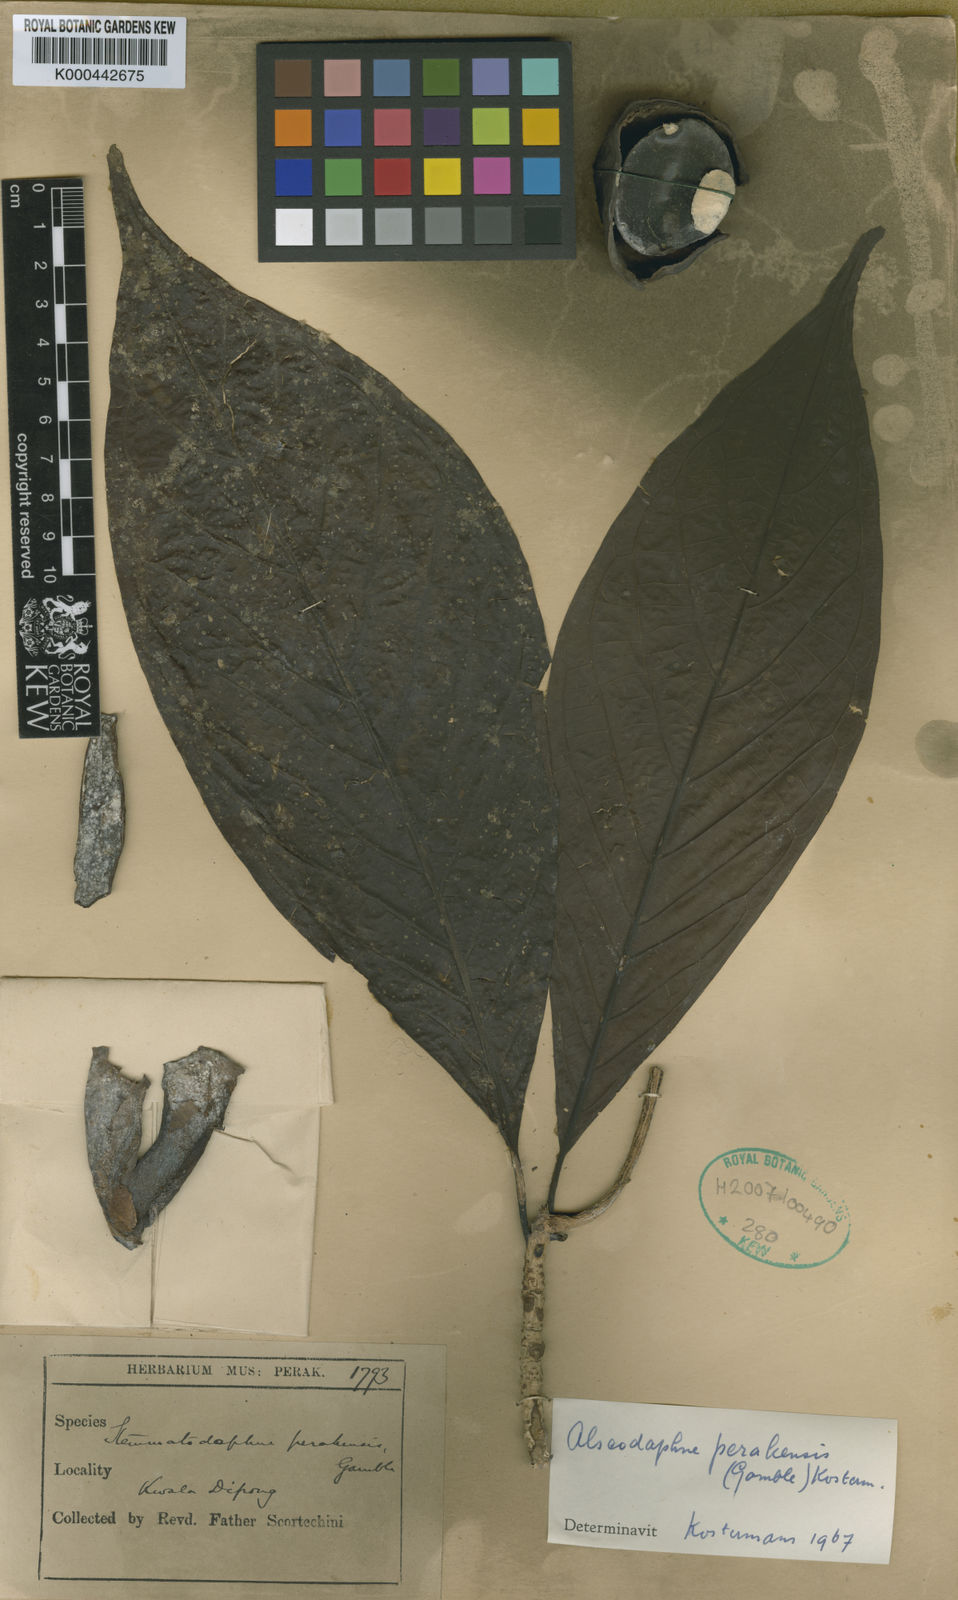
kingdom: Plantae
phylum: Tracheophyta
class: Magnoliopsida
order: Laurales
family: Lauraceae
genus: Alseodaphne
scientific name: Alseodaphne perakensis
